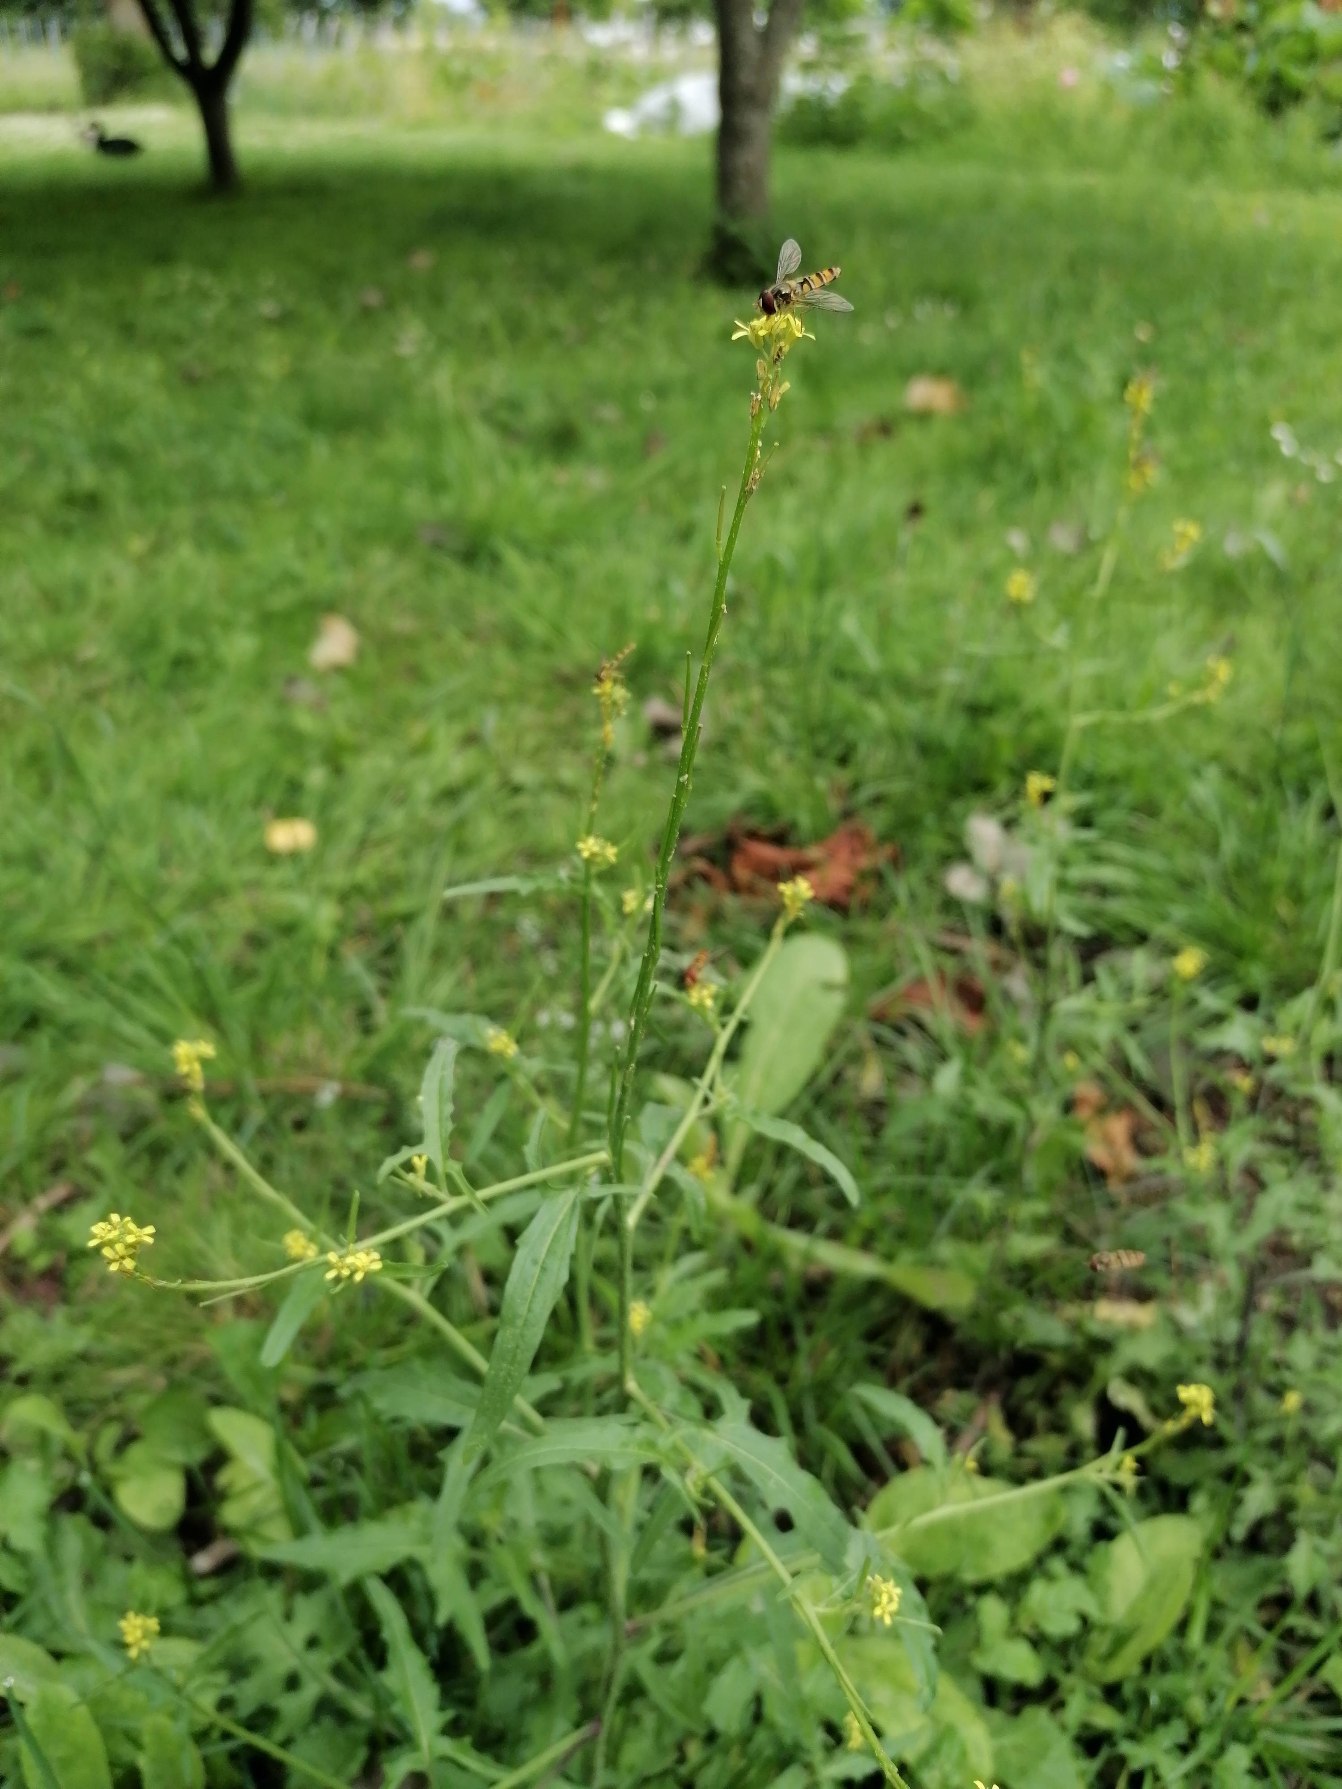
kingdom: Plantae
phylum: Tracheophyta
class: Magnoliopsida
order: Brassicales
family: Brassicaceae
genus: Sisymbrium
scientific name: Sisymbrium officinale
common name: Rank vejsennep
